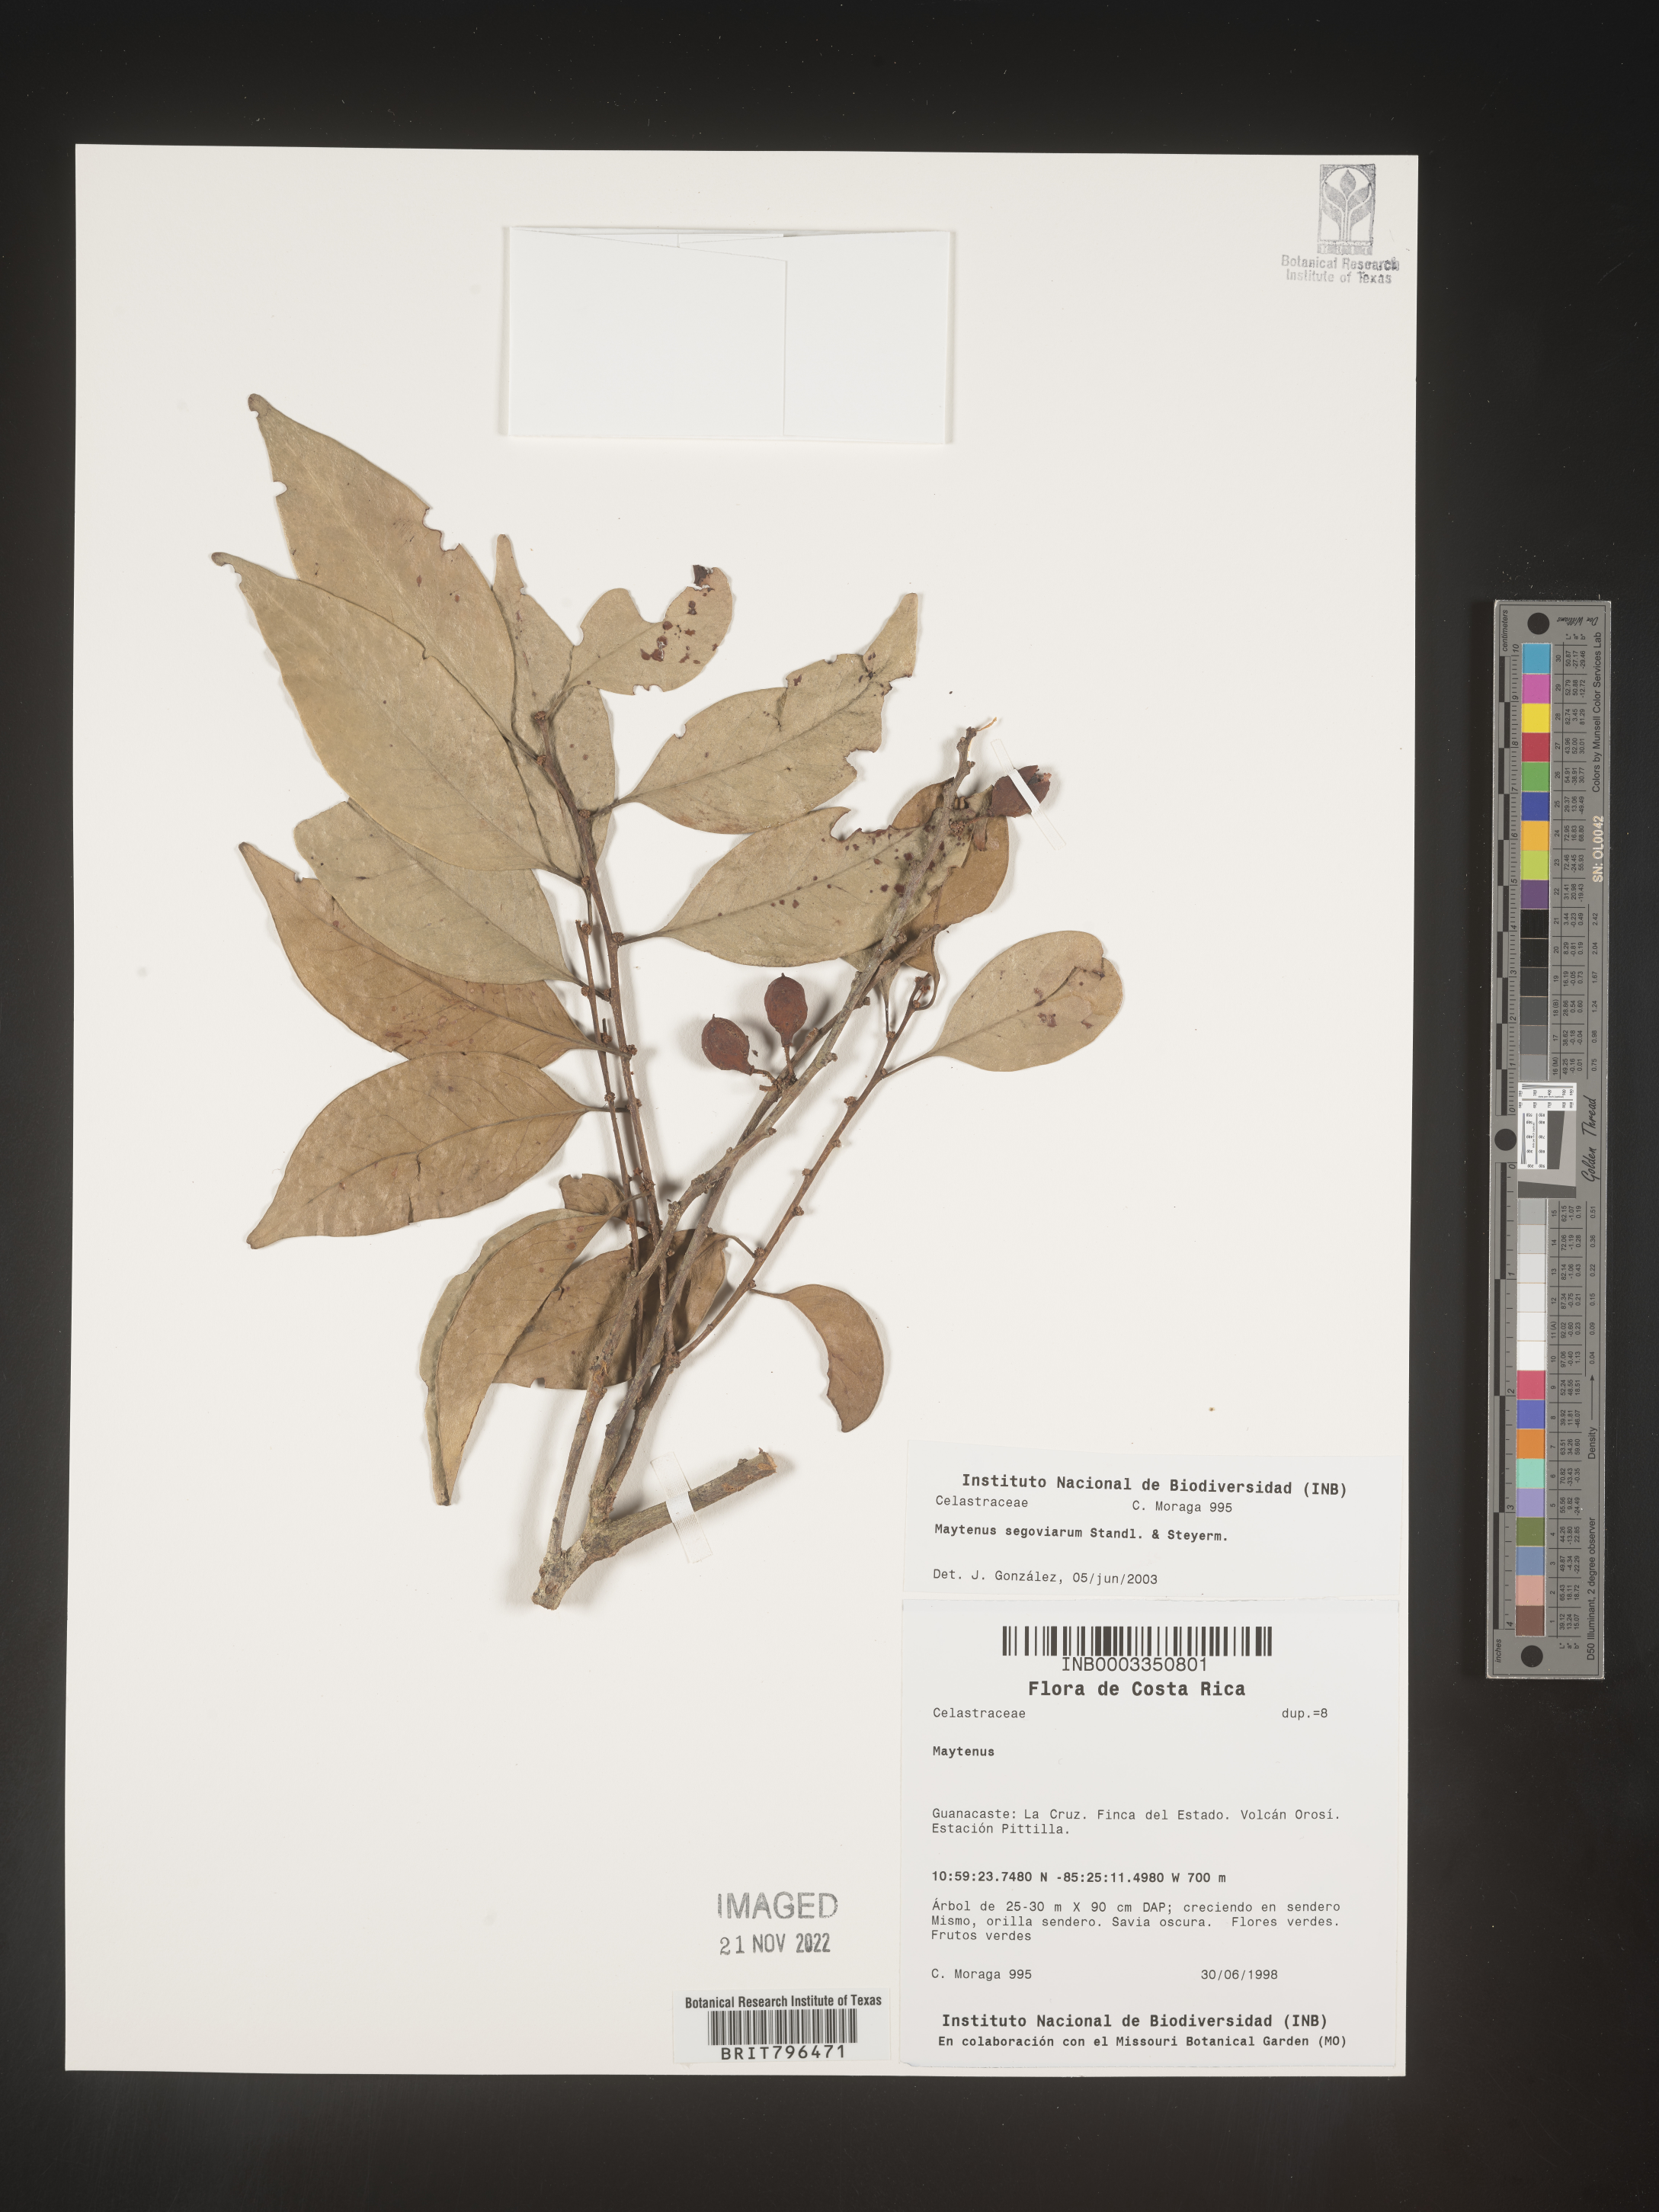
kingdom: Plantae
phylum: Tracheophyta
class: Magnoliopsida
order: Celastrales
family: Celastraceae
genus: Maytenus
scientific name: Maytenus
